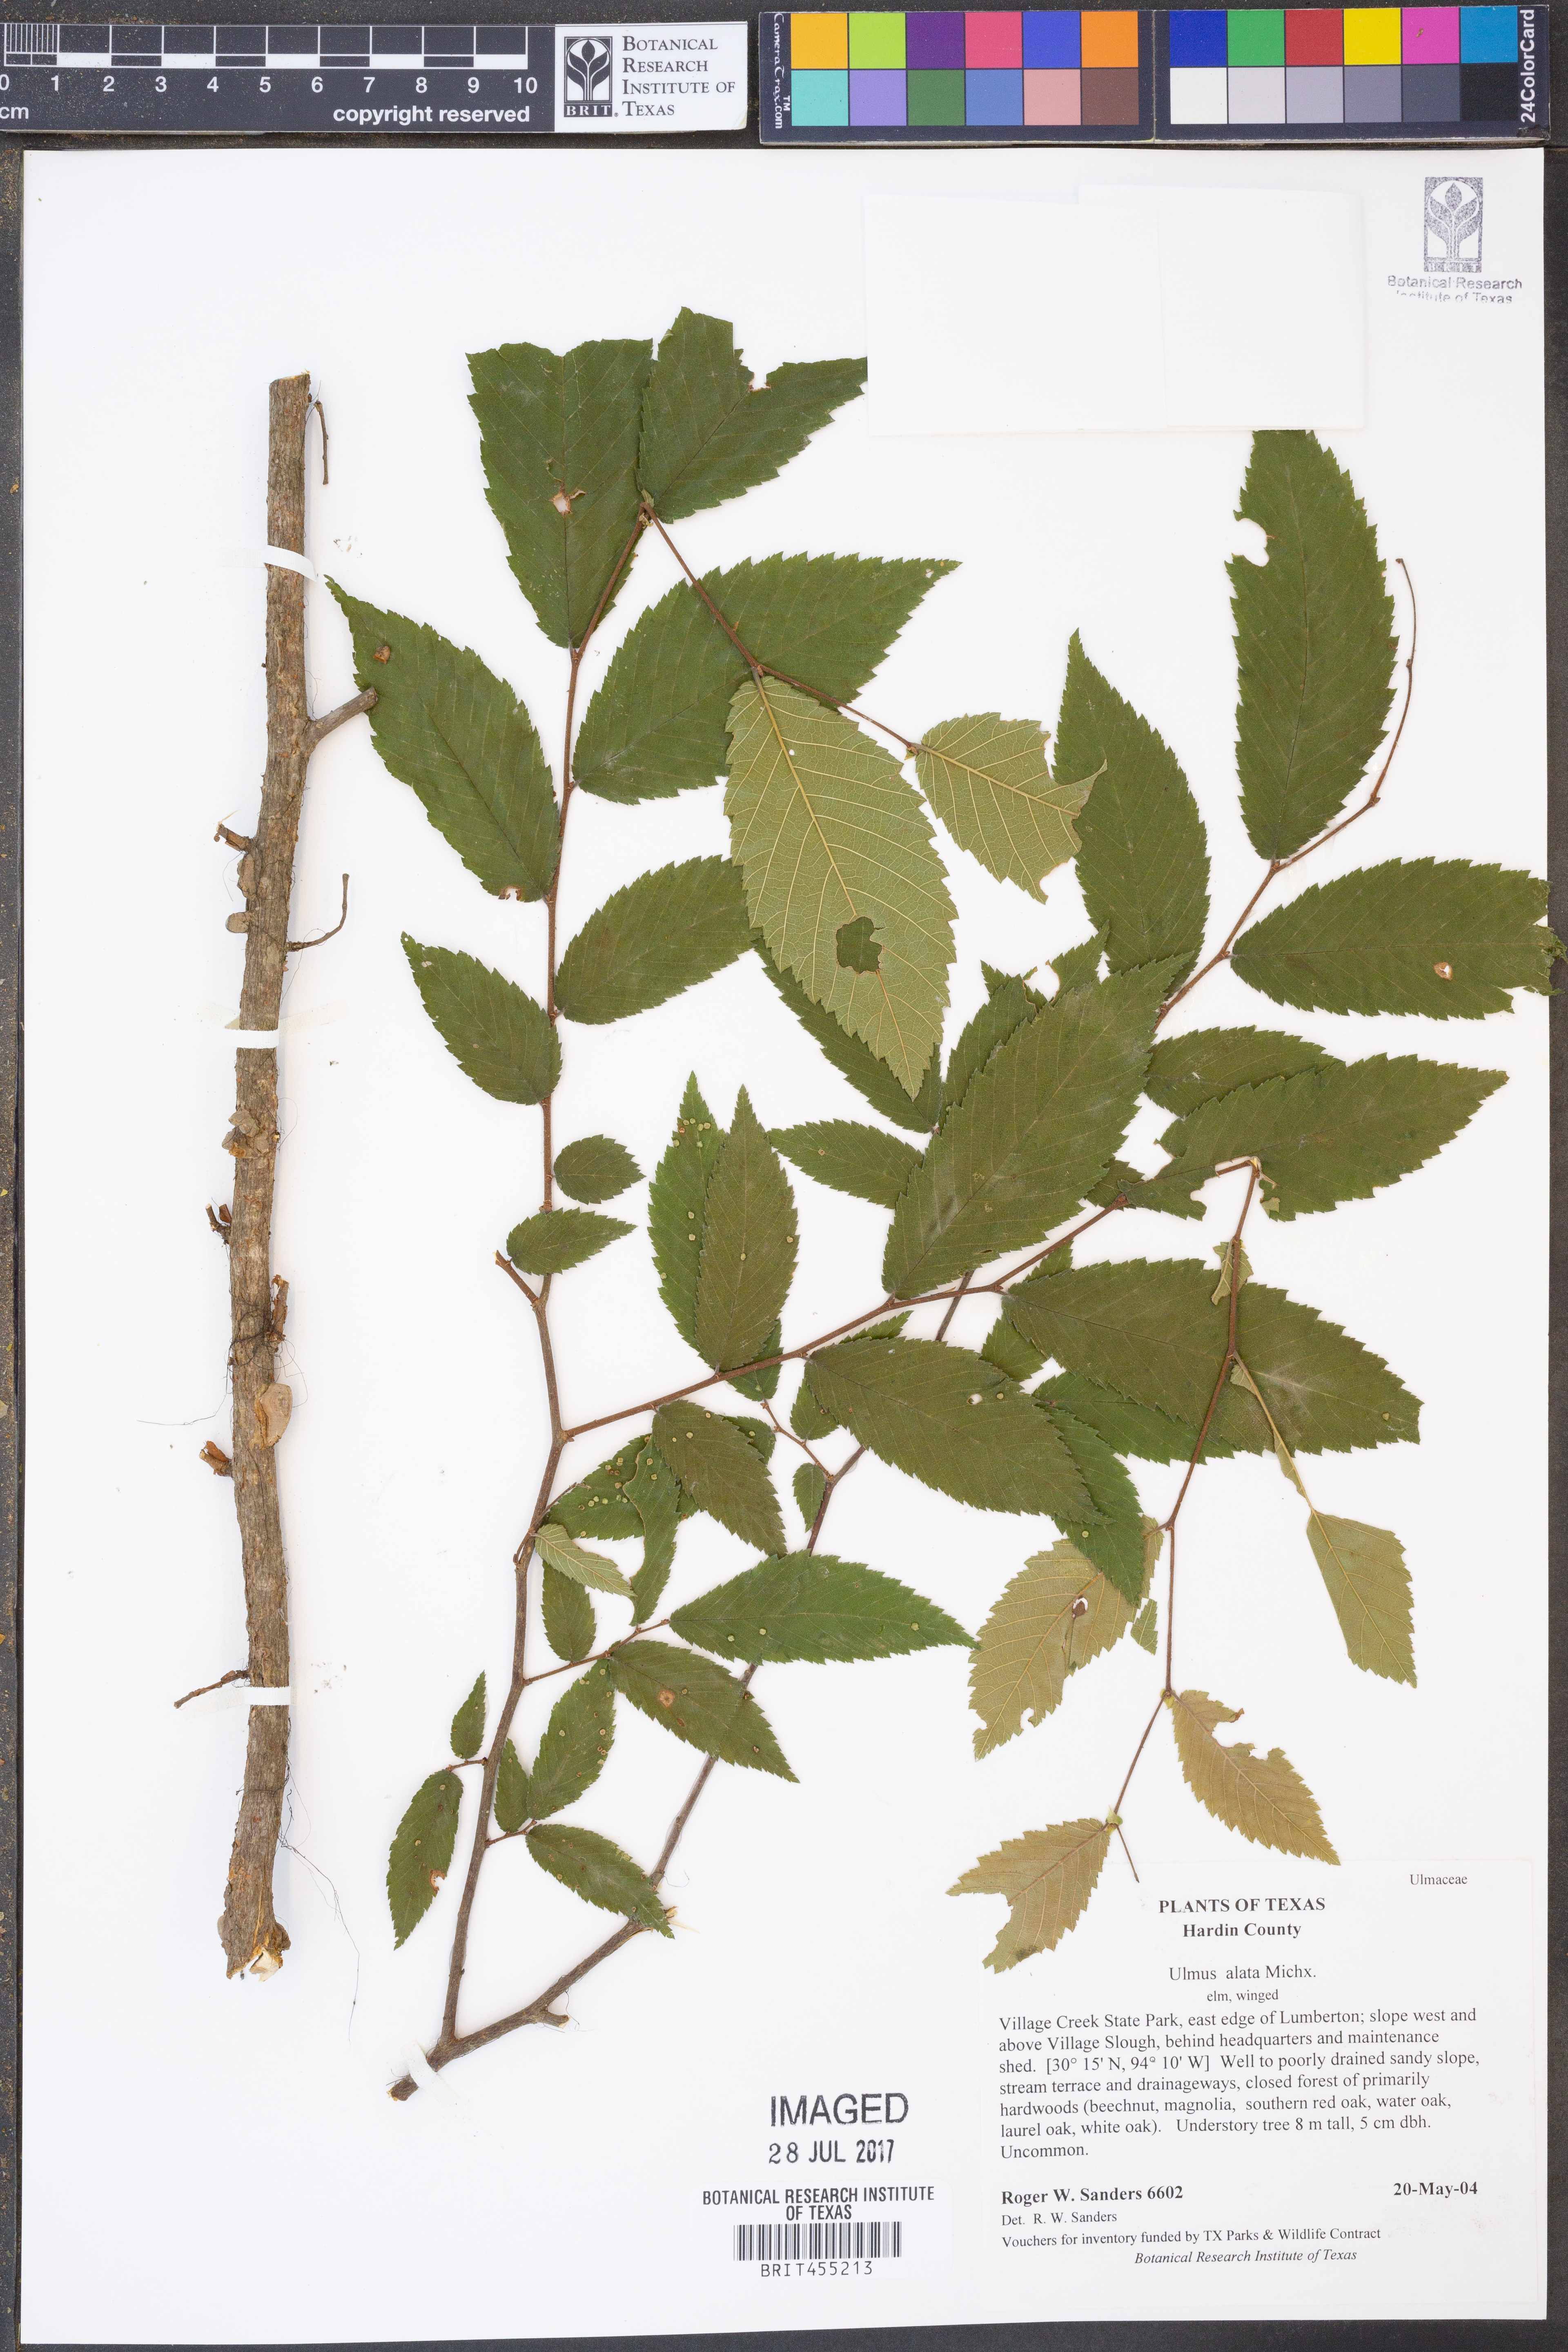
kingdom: Plantae
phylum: Tracheophyta
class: Magnoliopsida
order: Rosales
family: Ulmaceae
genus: Ulmus
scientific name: Ulmus alata
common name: Winged elm
